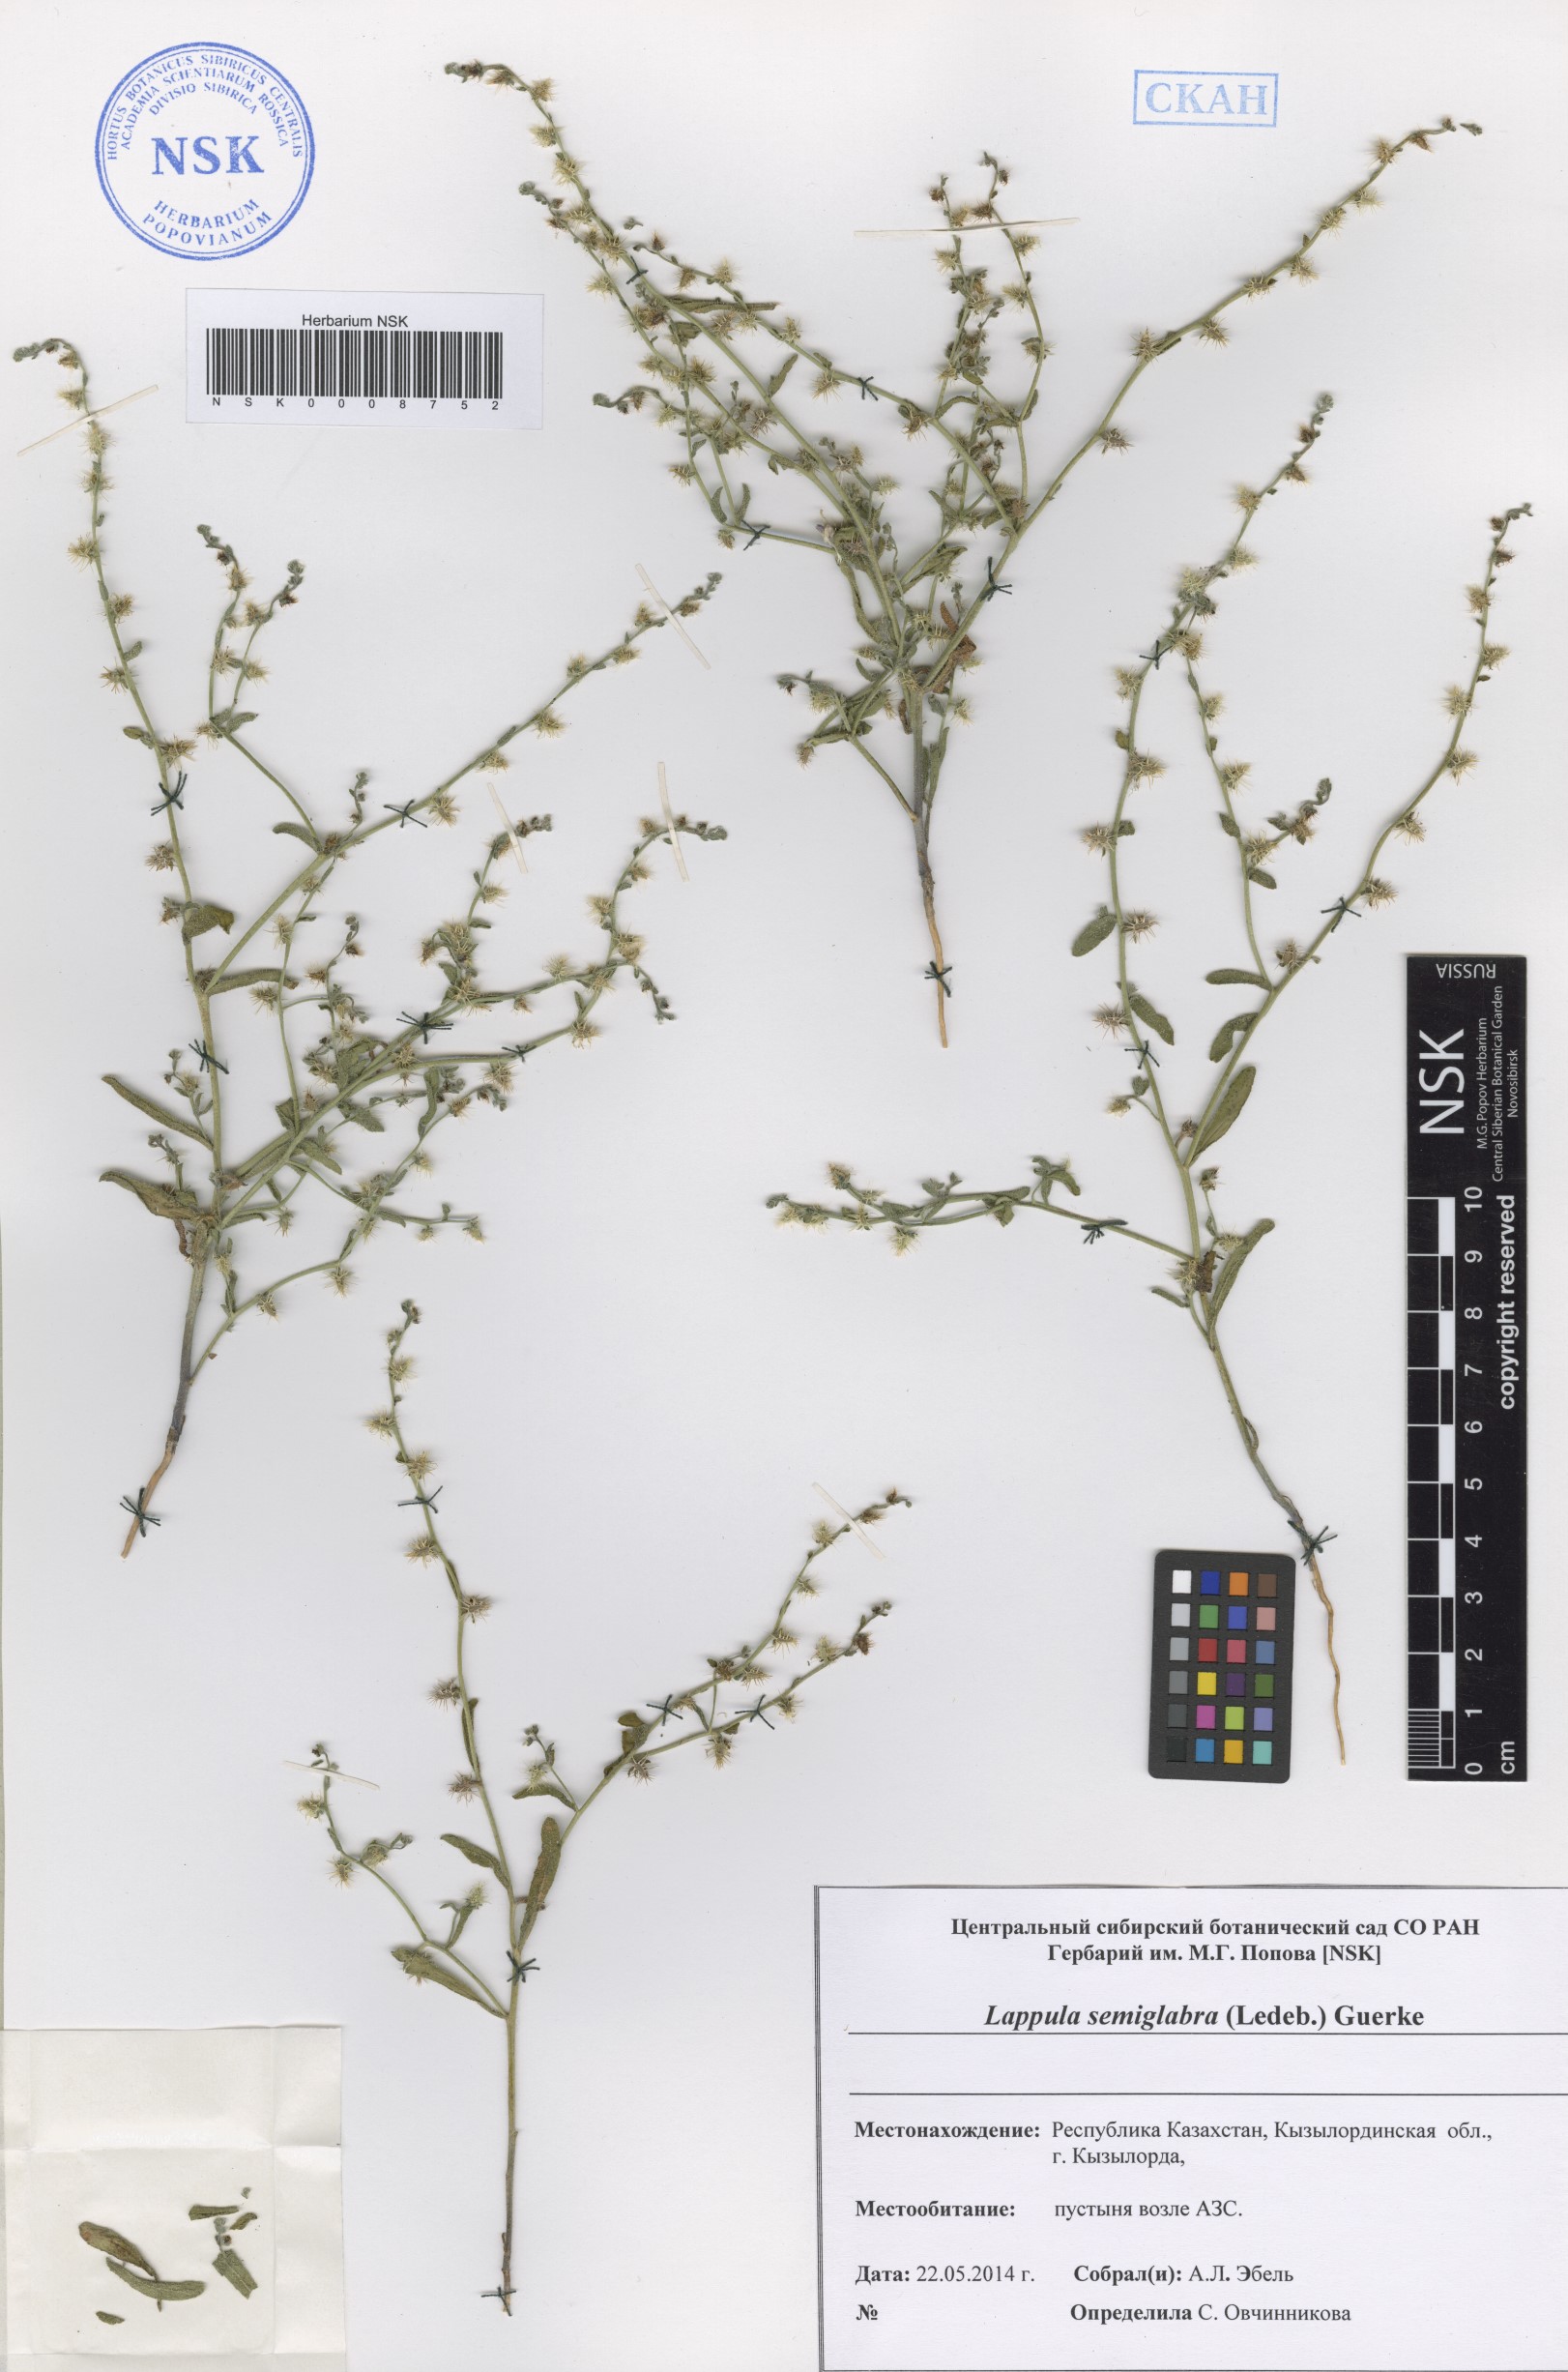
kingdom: Plantae
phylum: Tracheophyta
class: Magnoliopsida
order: Boraginales
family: Boraginaceae
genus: Lappula
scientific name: Lappula patula
